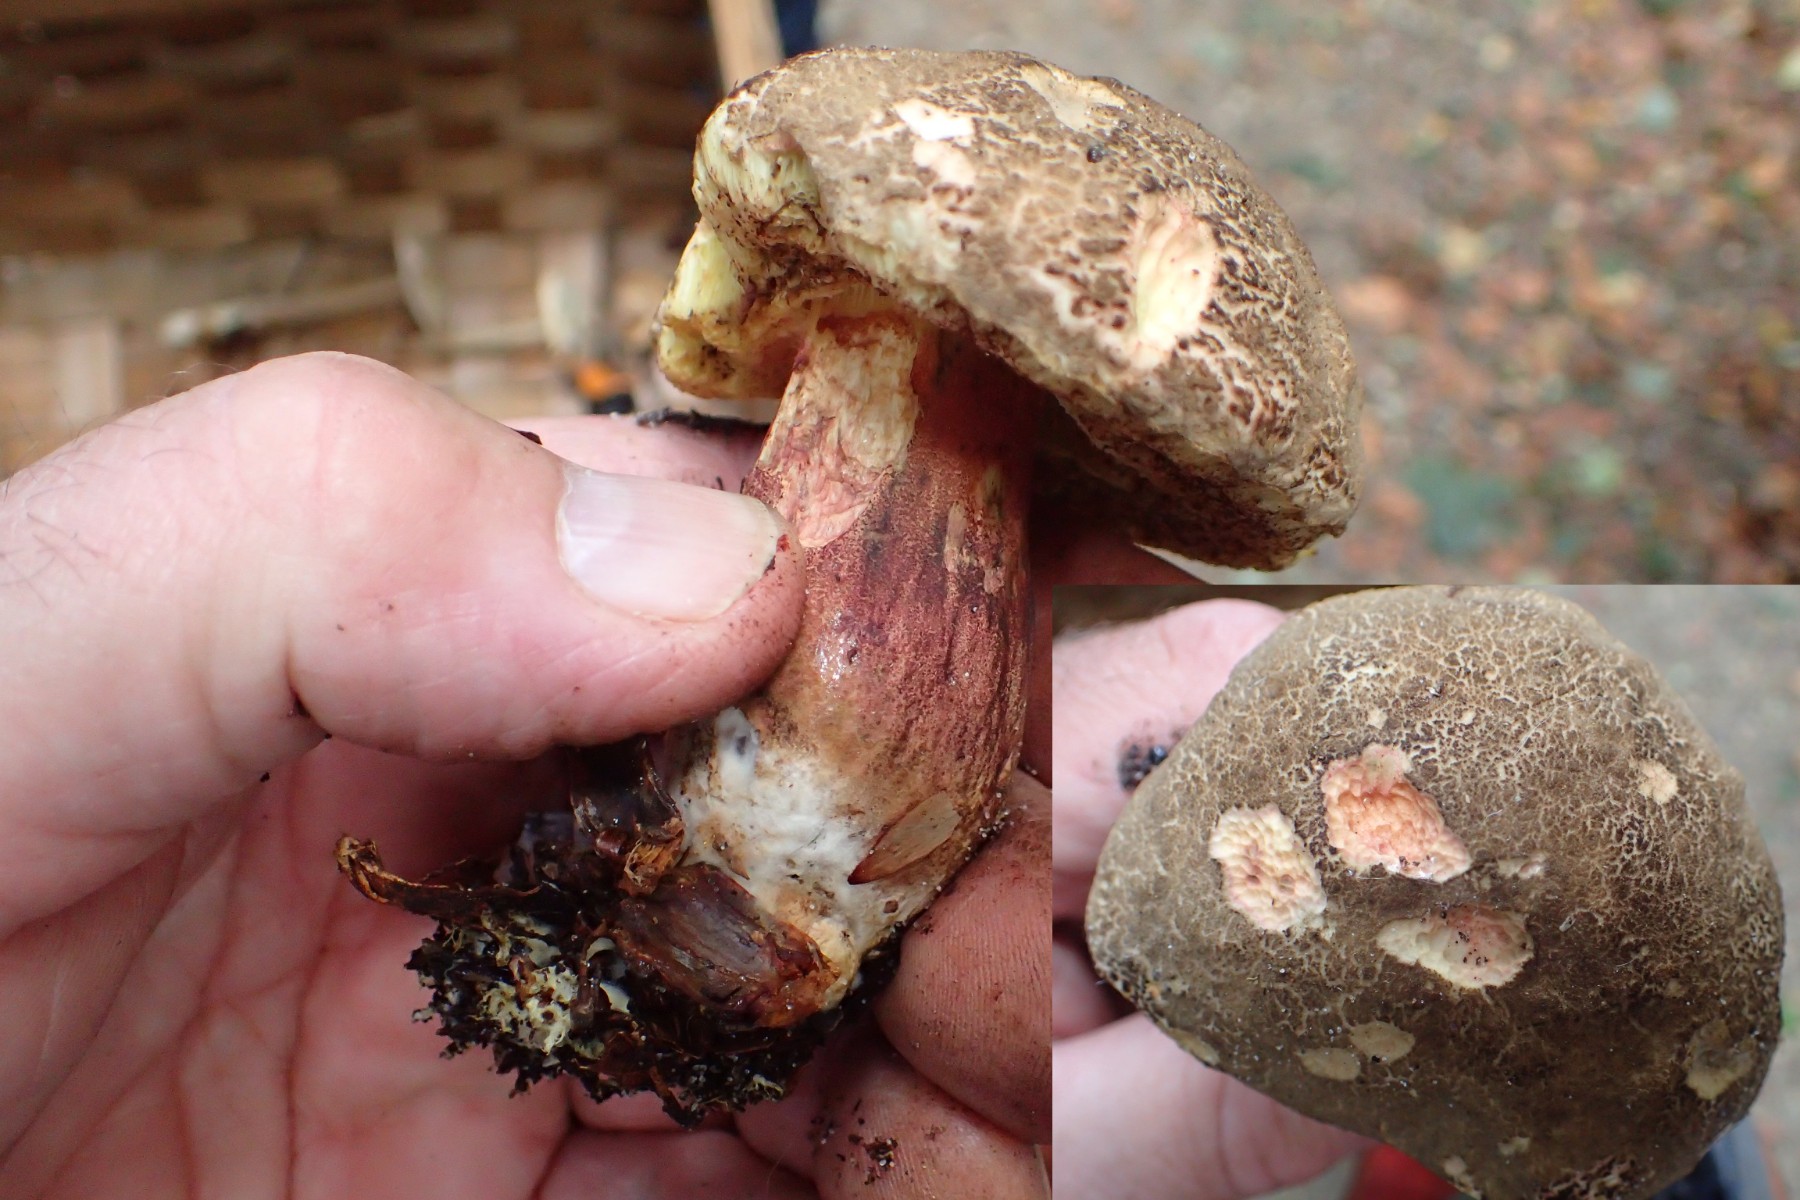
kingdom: Fungi
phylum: Basidiomycota
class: Agaricomycetes
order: Boletales
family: Boletaceae
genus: Xerocomellus
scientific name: Xerocomellus chrysenteron
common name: rødsprukken rørhat
